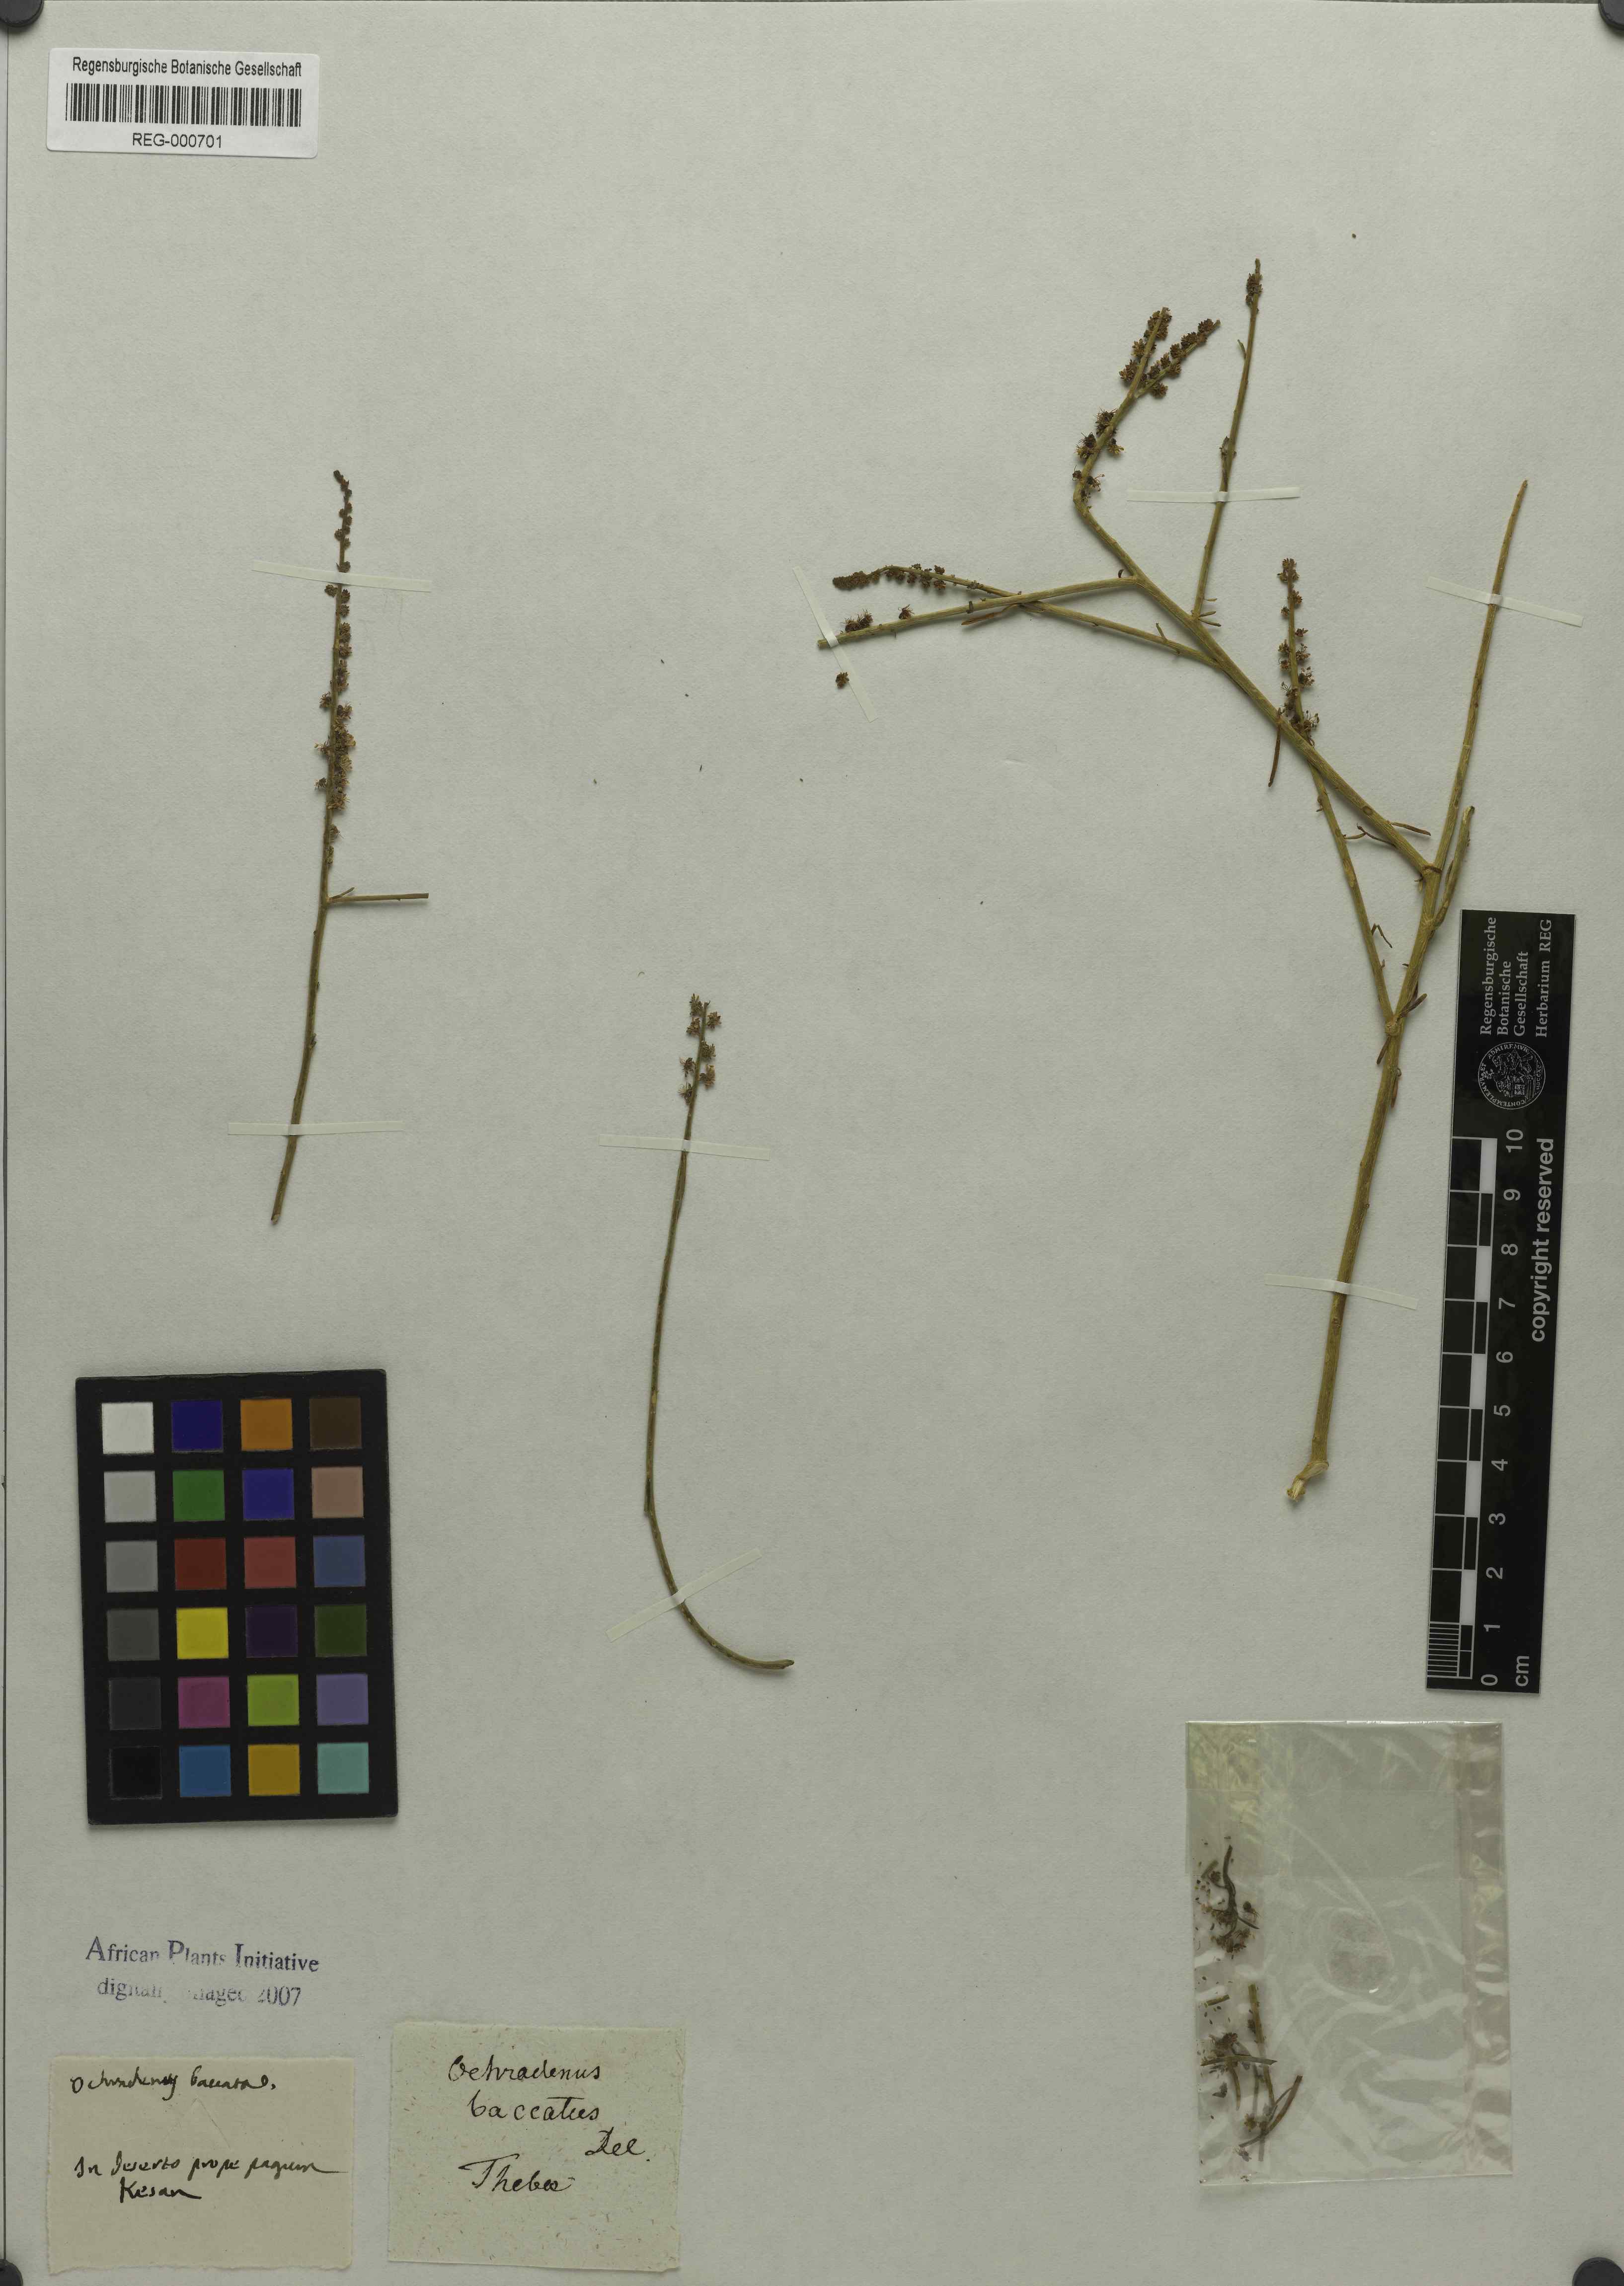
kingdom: Plantae
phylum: Tracheophyta
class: Magnoliopsida
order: Brassicales
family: Resedaceae
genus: Ochradenus
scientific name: Ochradenus baccatus
